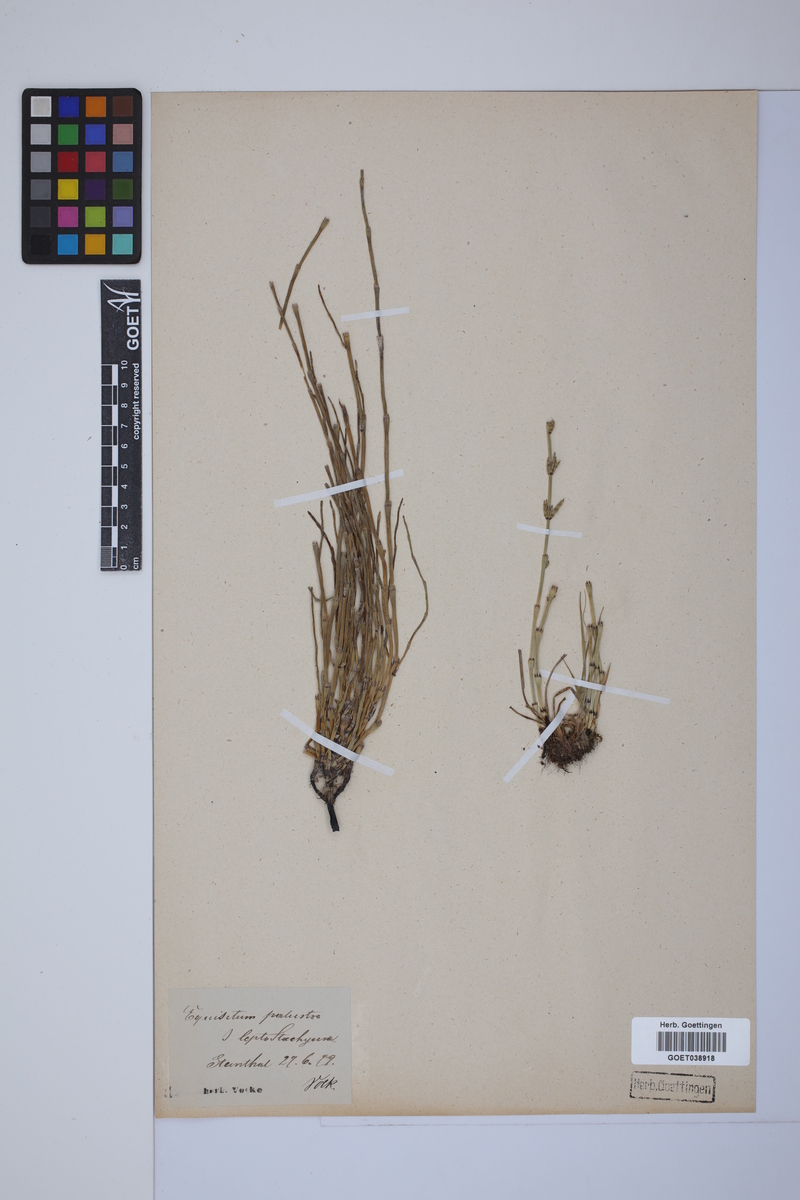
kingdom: Plantae
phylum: Tracheophyta
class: Polypodiopsida
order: Equisetales
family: Equisetaceae
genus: Equisetum
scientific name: Equisetum palustre
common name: Marsh horsetail
